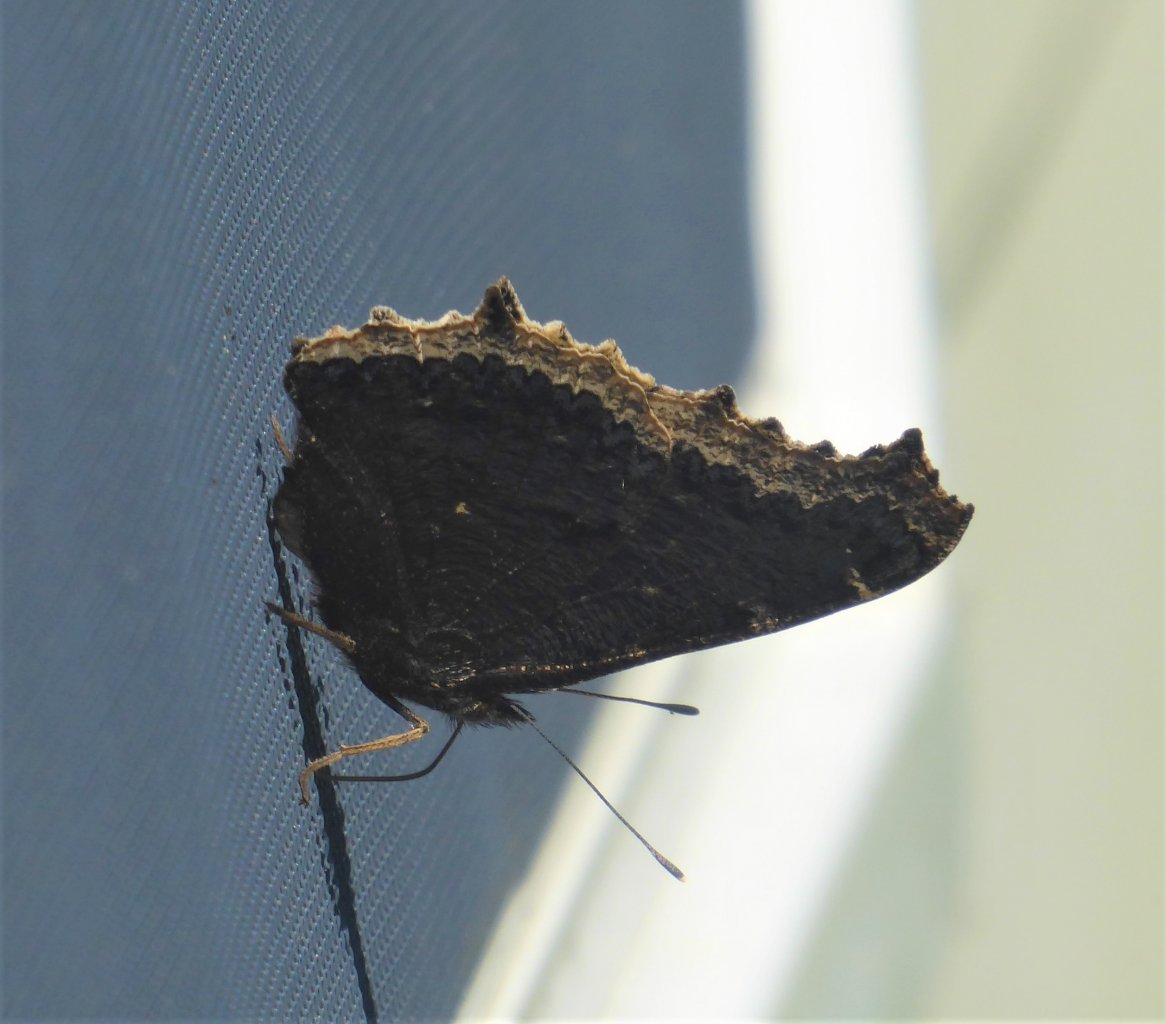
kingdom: Animalia
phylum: Arthropoda
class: Insecta
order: Lepidoptera
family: Nymphalidae
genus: Nymphalis
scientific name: Nymphalis antiopa
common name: Mourning Cloak
